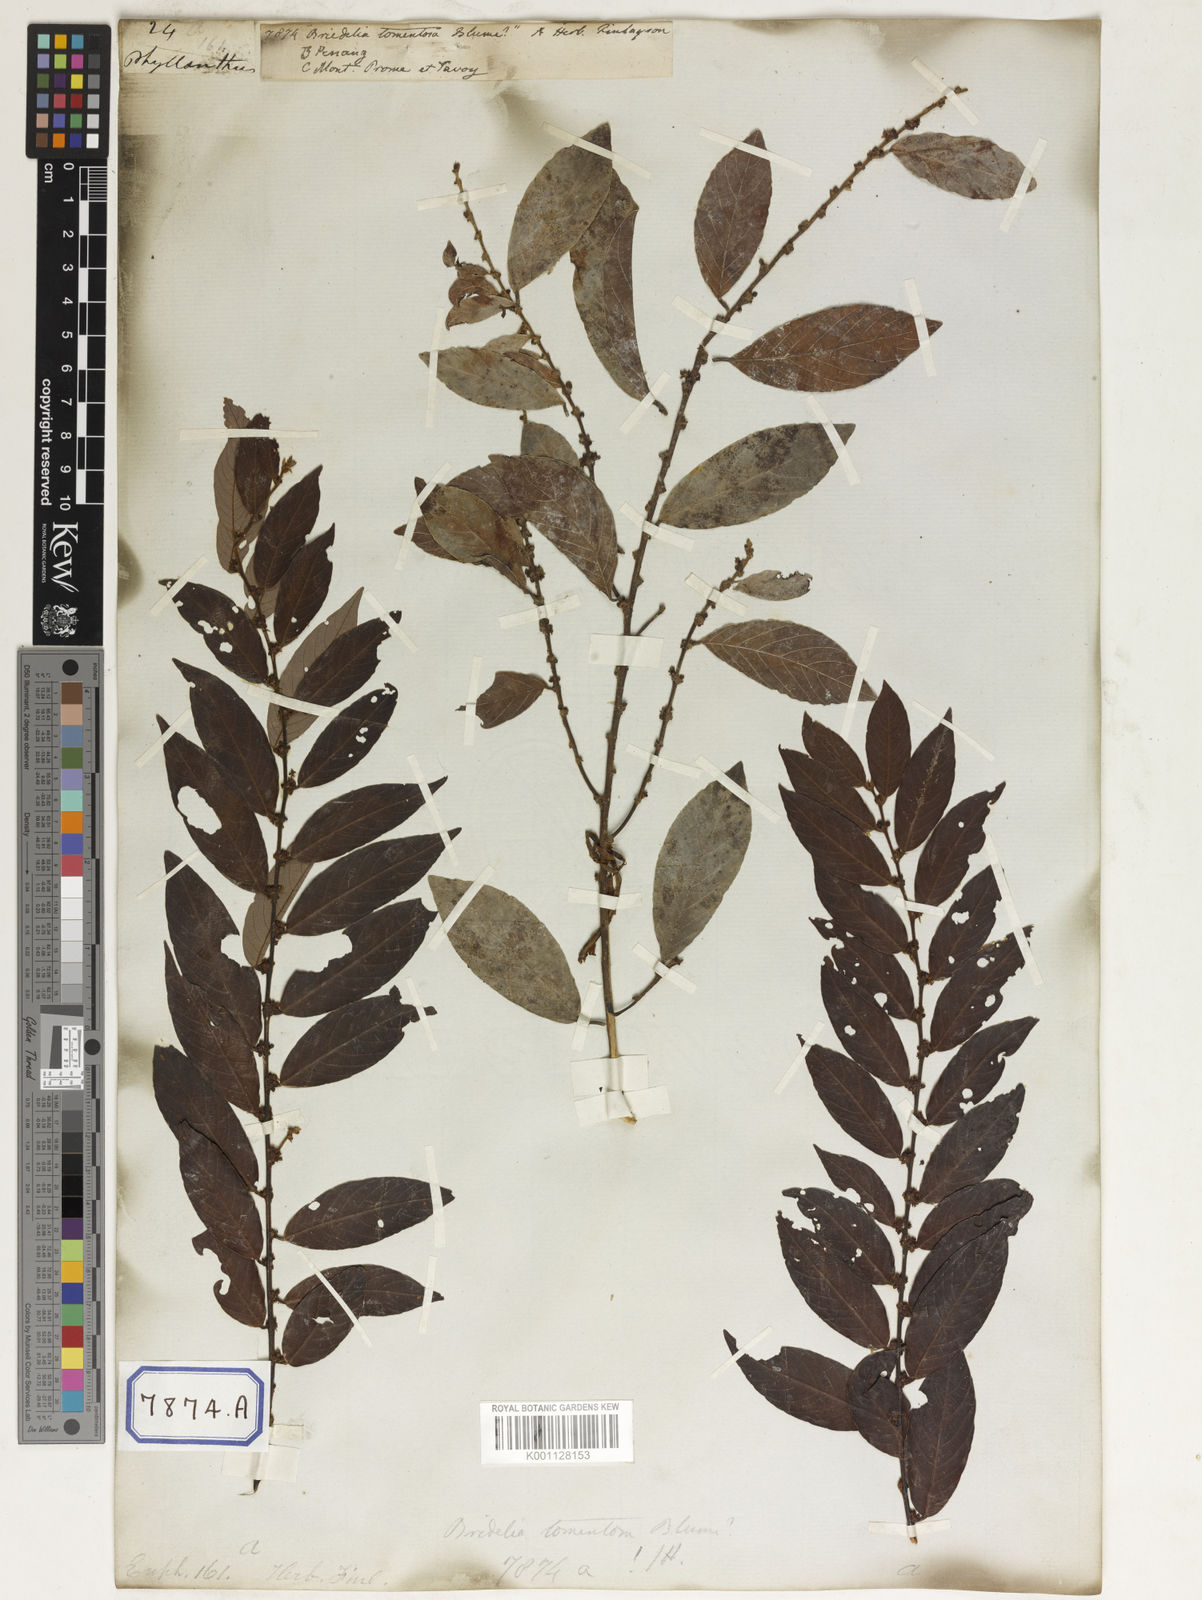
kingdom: Plantae
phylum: Tracheophyta
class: Magnoliopsida
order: Malpighiales
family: Euphorbiaceae
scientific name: Euphorbiaceae
